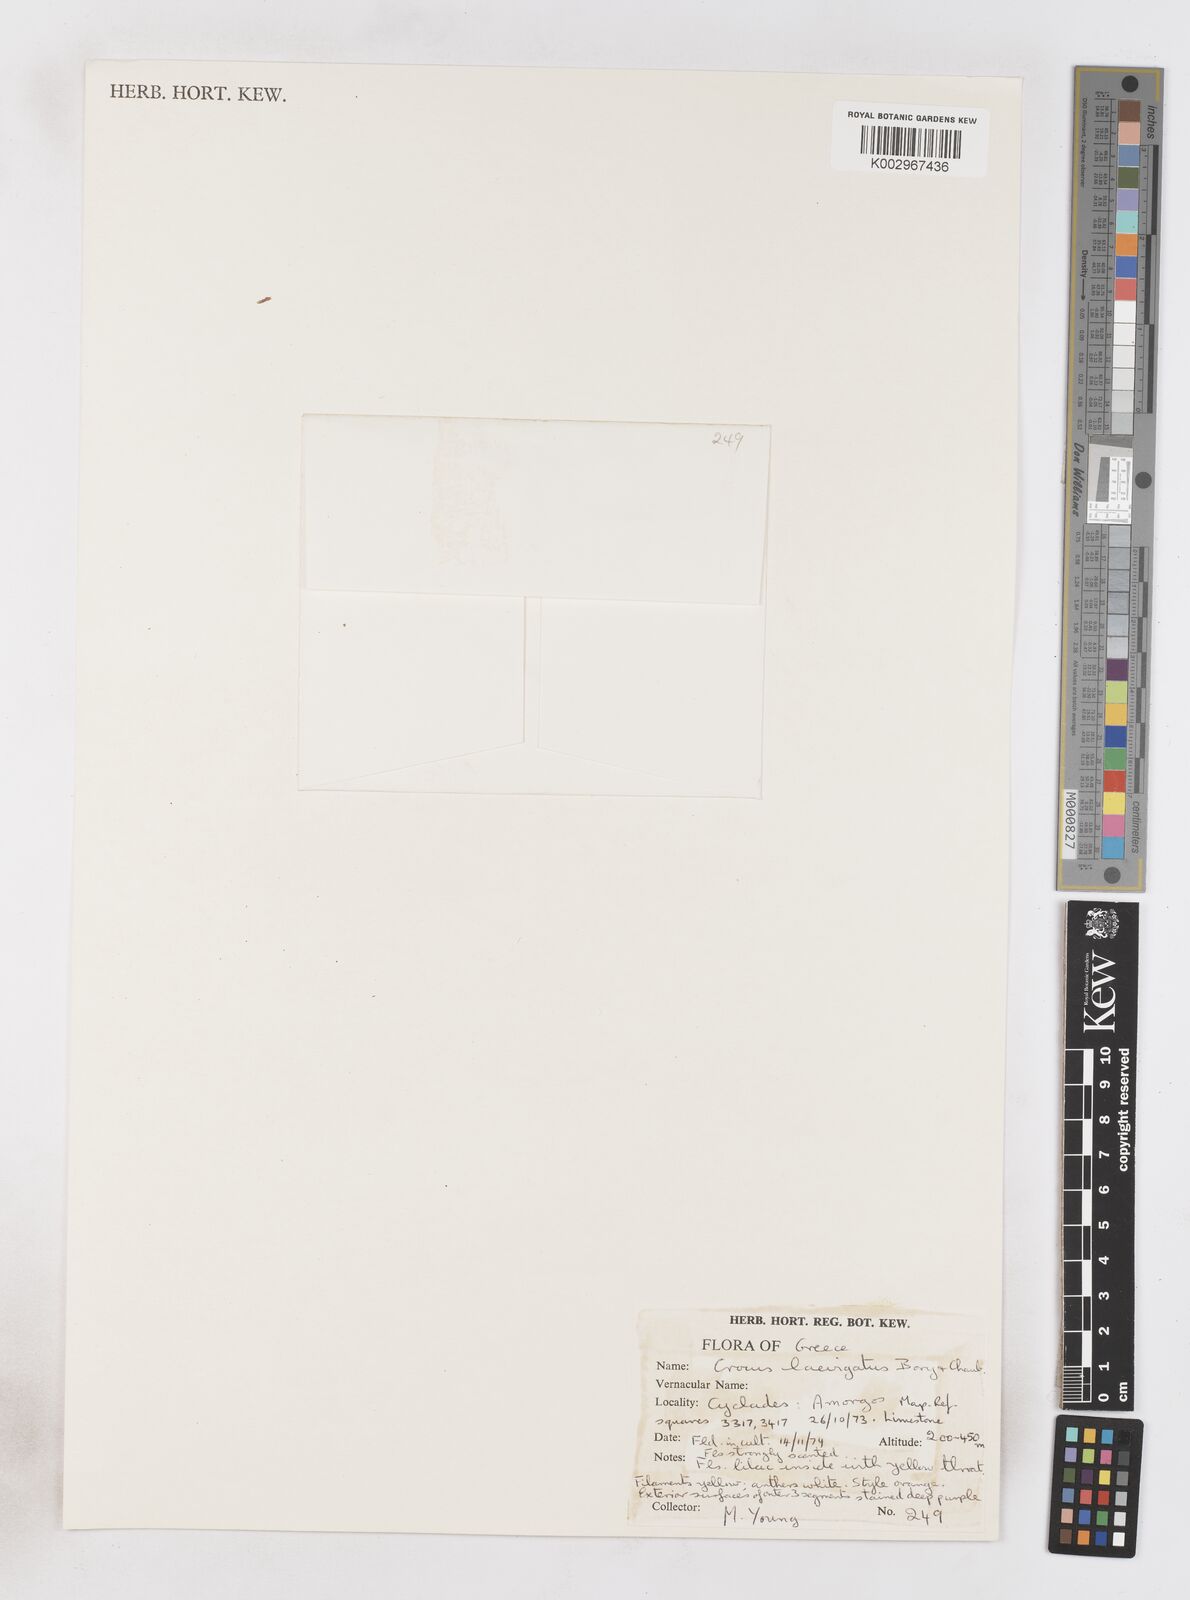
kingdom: Plantae
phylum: Tracheophyta
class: Liliopsida
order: Asparagales
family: Iridaceae
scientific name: Iridaceae
